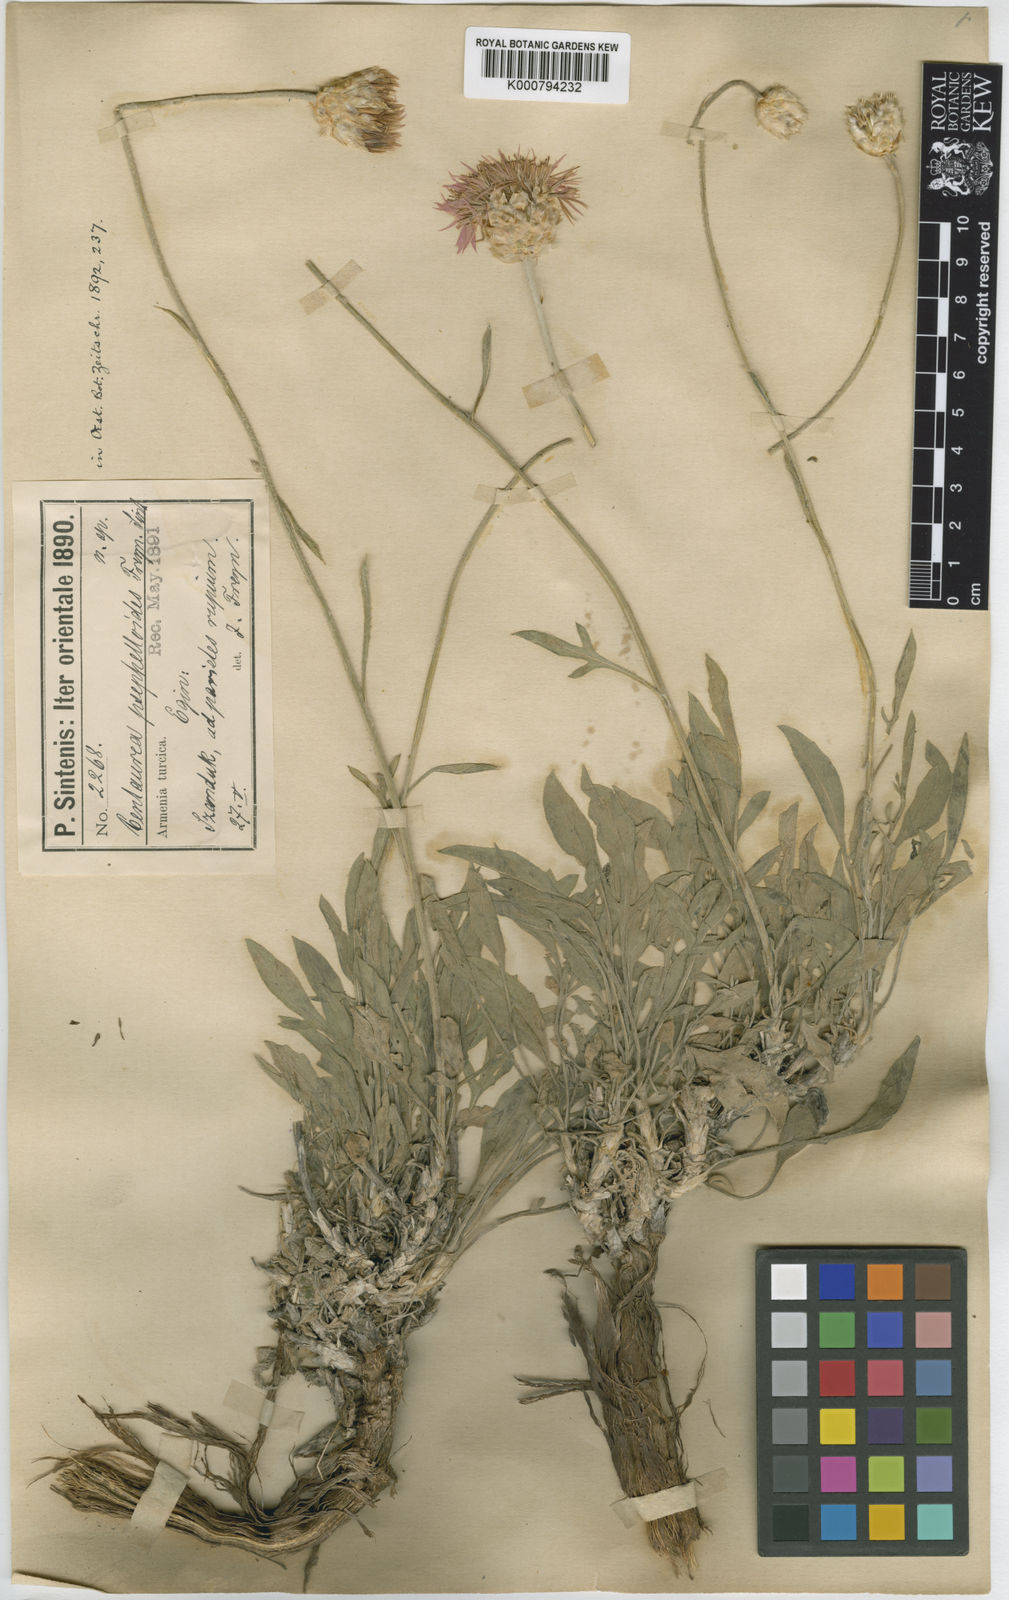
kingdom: Plantae
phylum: Tracheophyta
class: Magnoliopsida
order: Asterales
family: Asteraceae
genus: Psephellus
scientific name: Psephellus psephelloides
